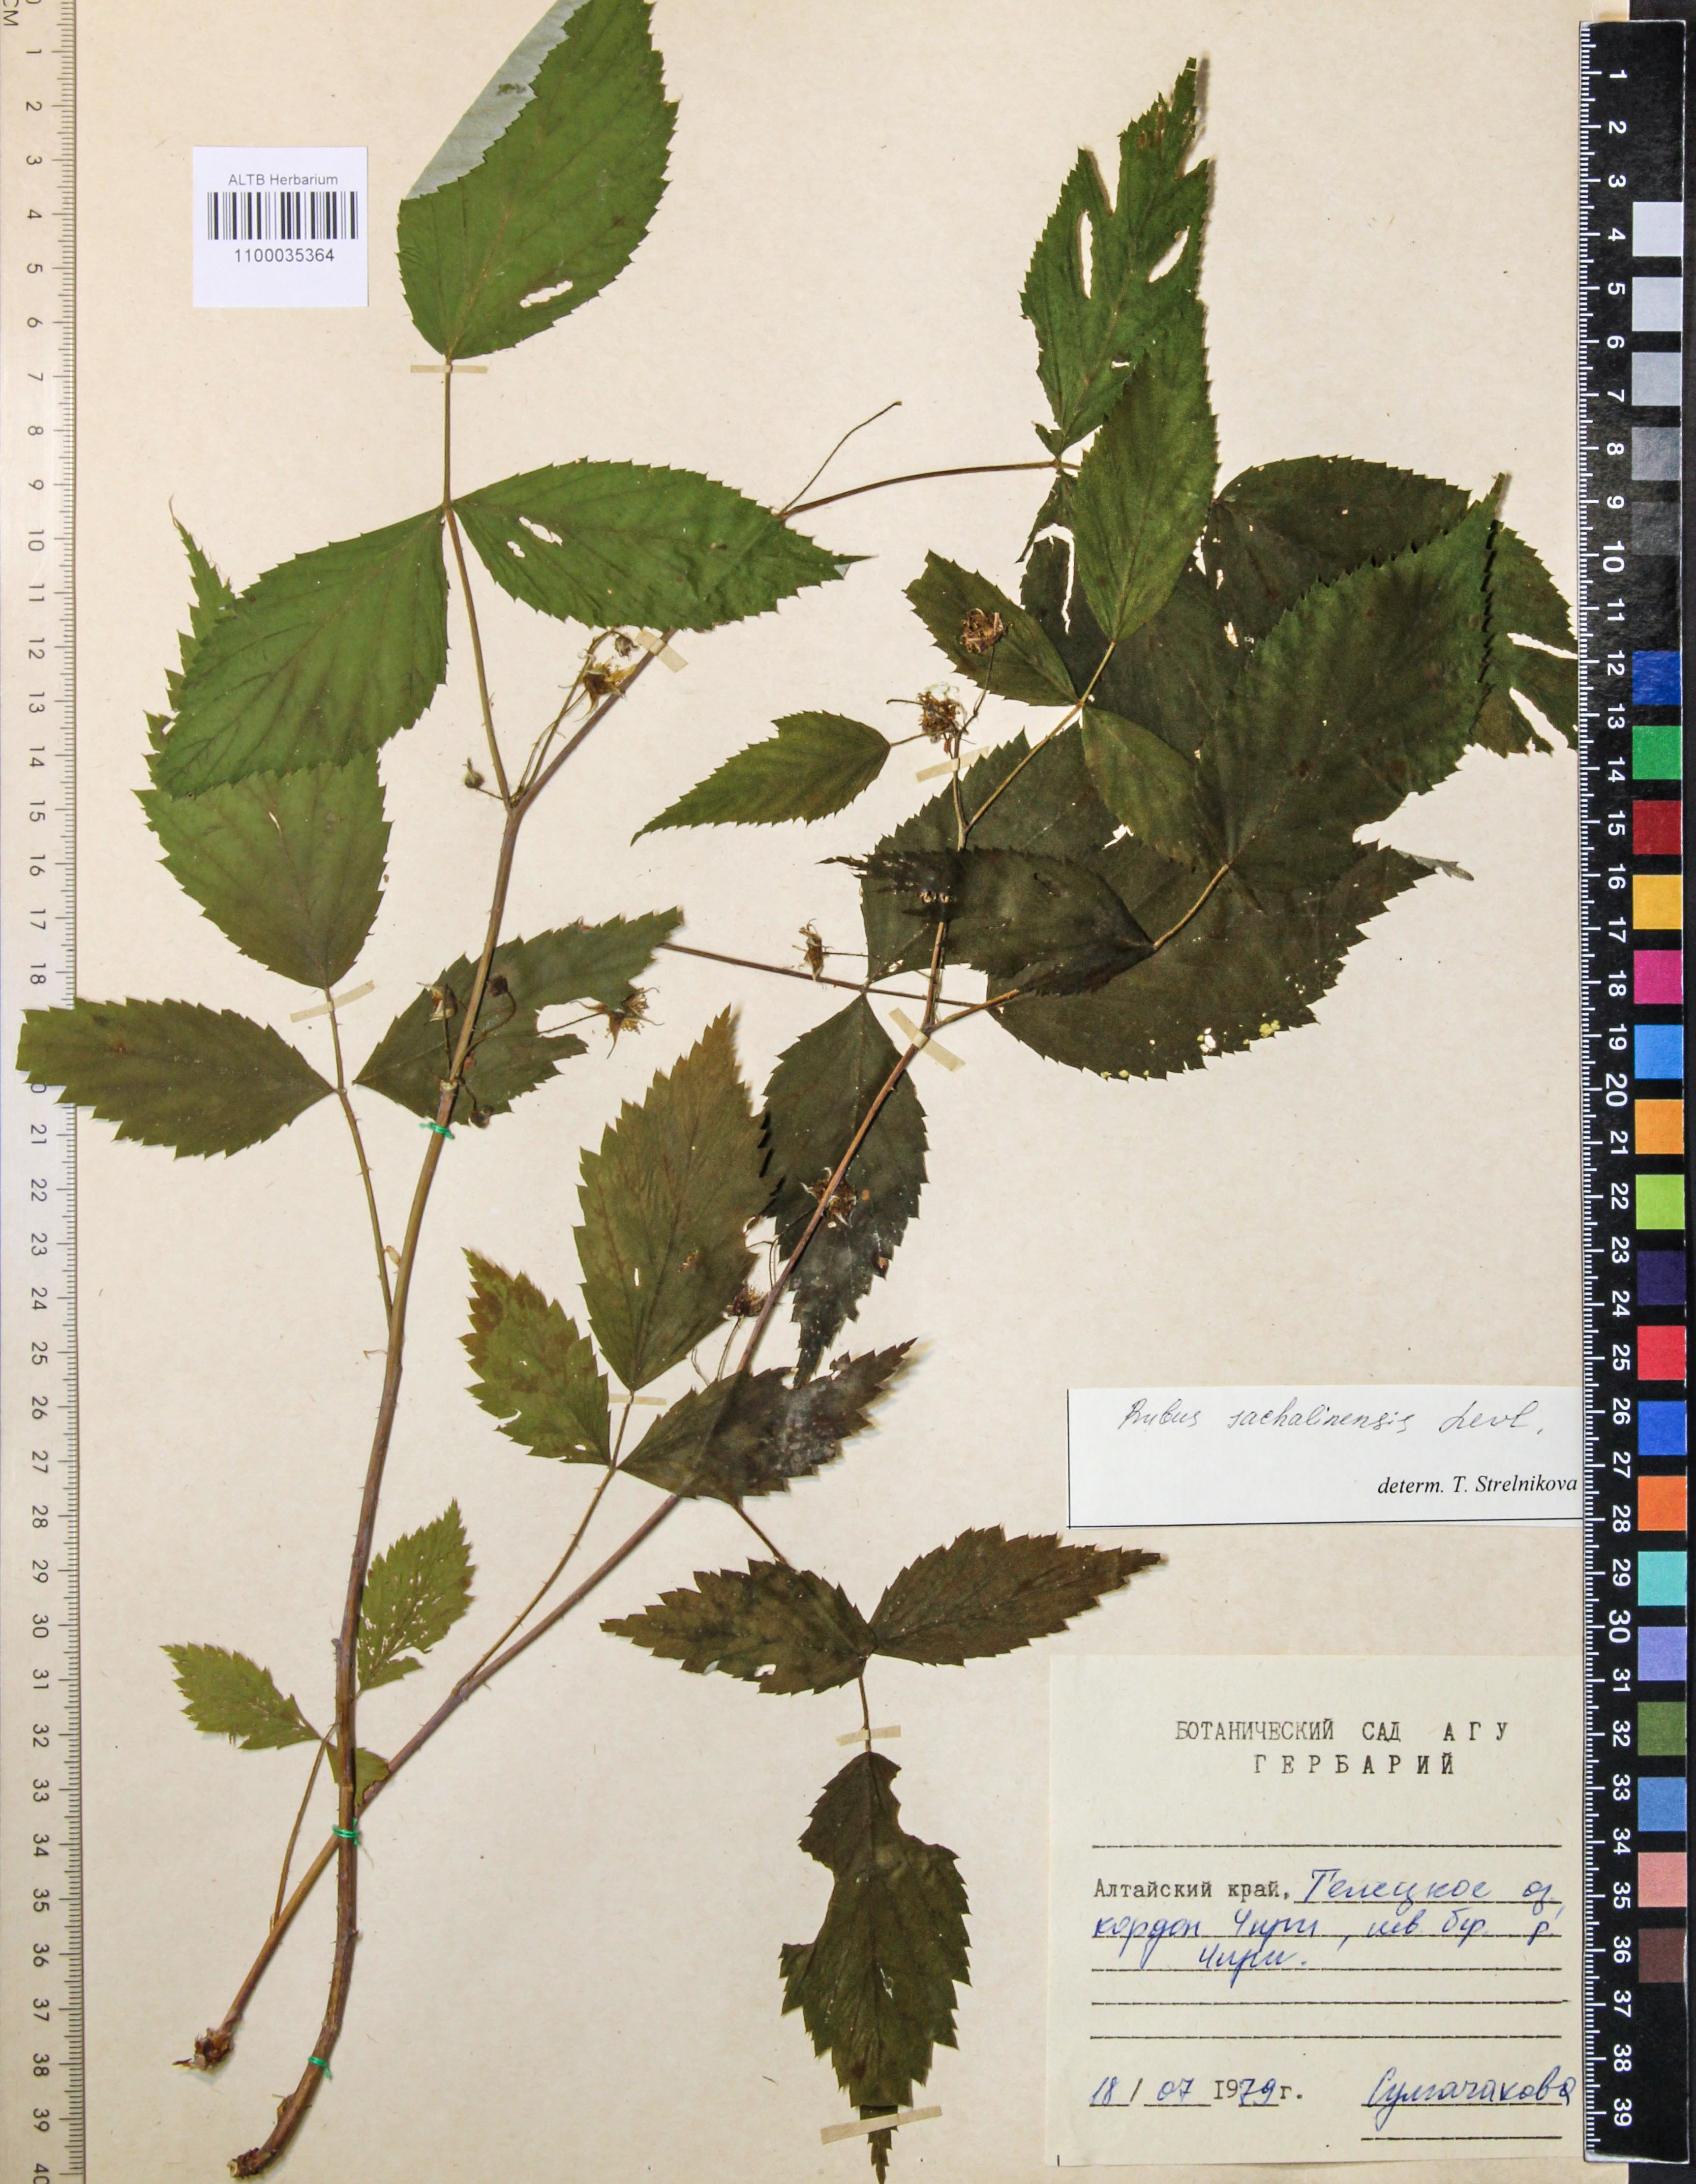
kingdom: Plantae
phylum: Tracheophyta
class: Magnoliopsida
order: Rosales
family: Rosaceae
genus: Rubus
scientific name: Rubus sachalinensis
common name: Red raspberry
